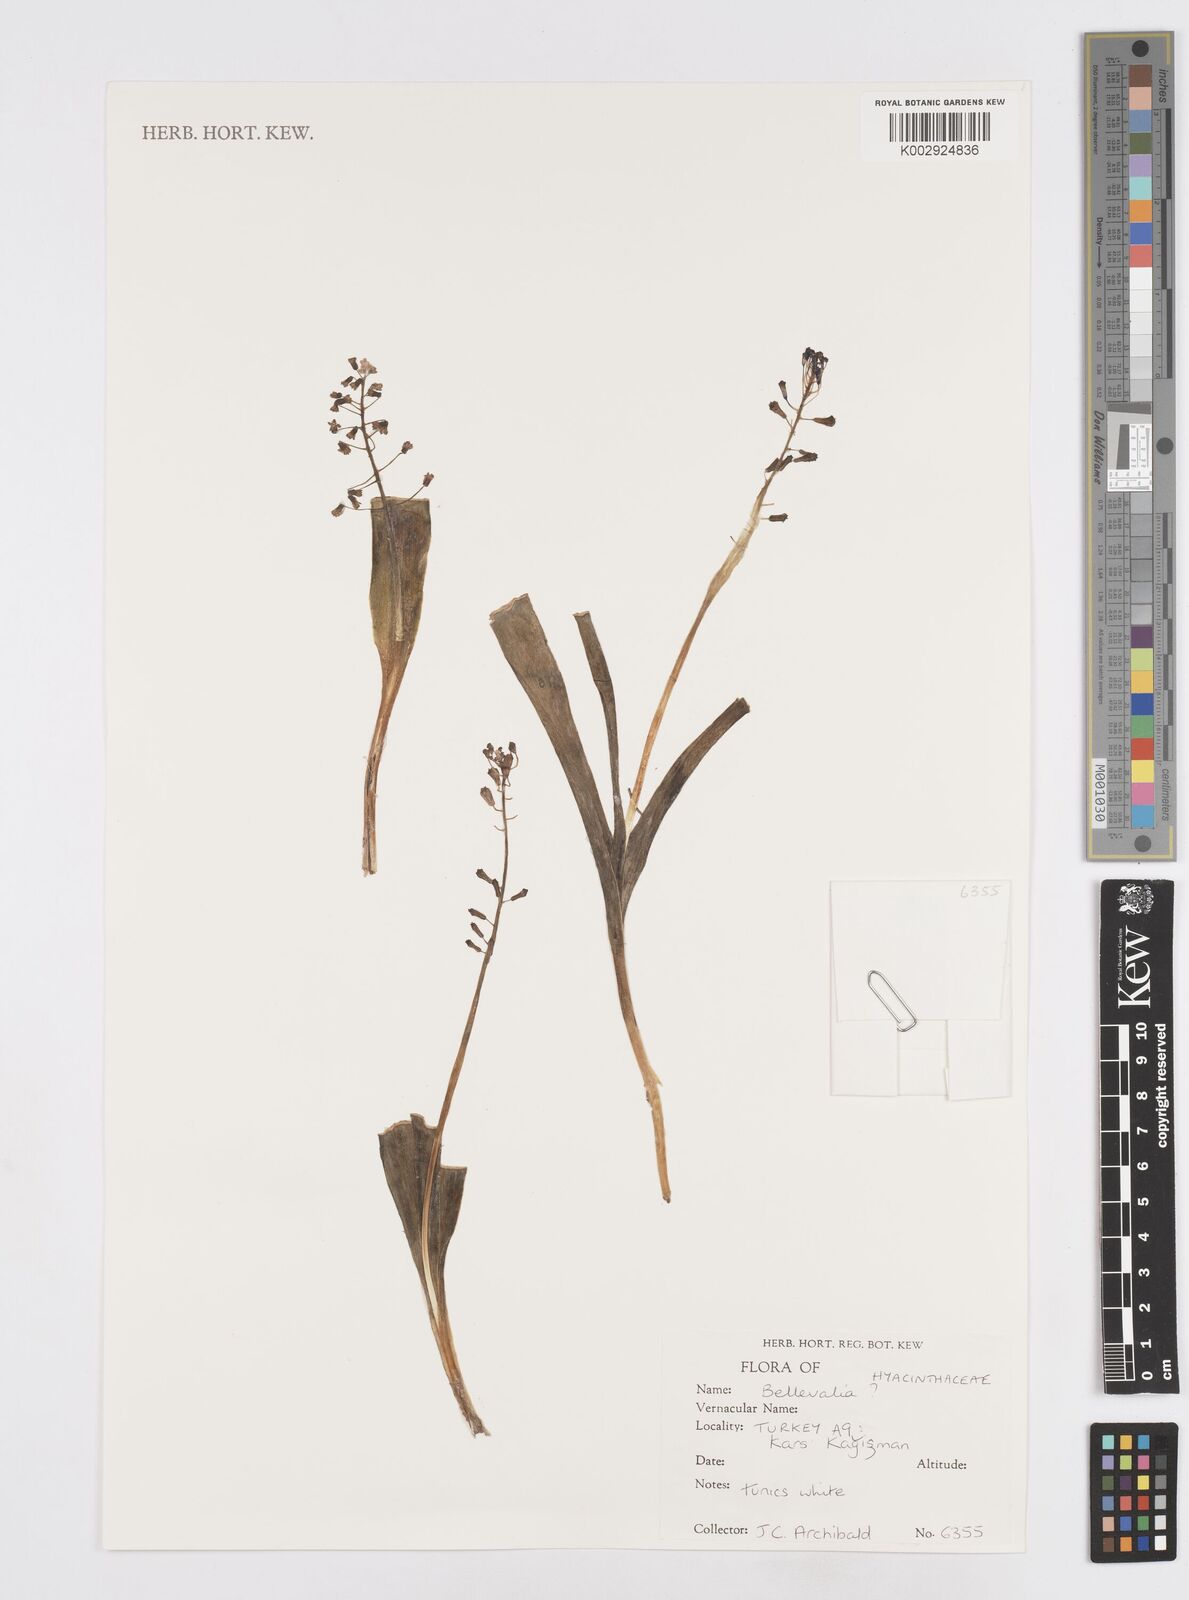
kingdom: Plantae
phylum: Tracheophyta
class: Liliopsida
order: Asparagales
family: Asparagaceae
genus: Bellevalia
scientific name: Bellevalia
